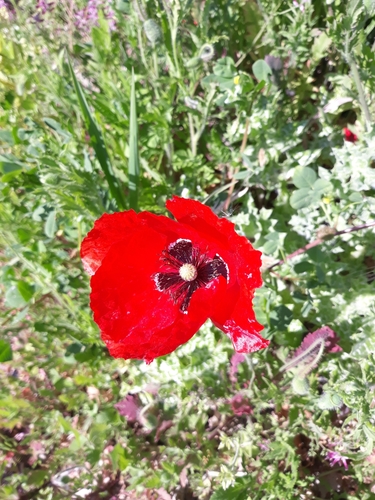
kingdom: Plantae
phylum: Tracheophyta
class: Magnoliopsida
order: Ranunculales
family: Papaveraceae
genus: Papaver
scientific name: Papaver rhoeas
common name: Corn poppy
